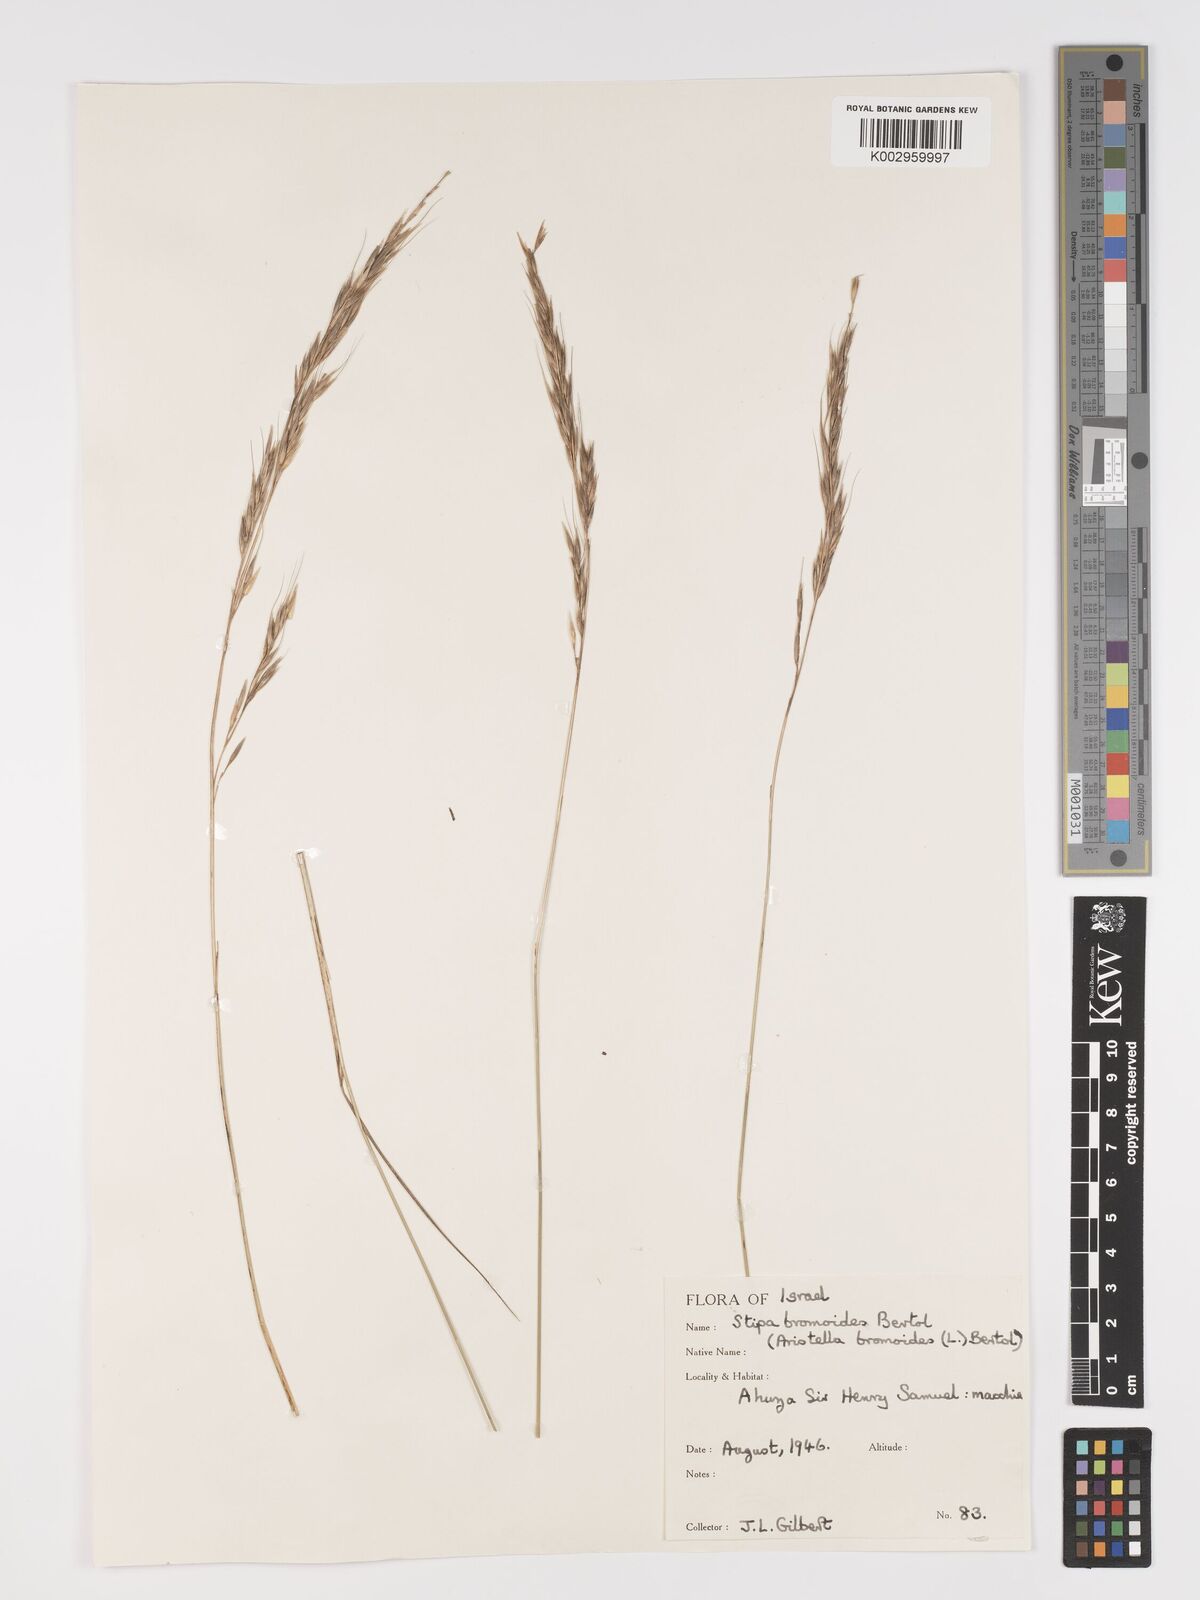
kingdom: Plantae
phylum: Tracheophyta
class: Liliopsida
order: Poales
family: Poaceae
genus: Achnatherum
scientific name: Achnatherum bromoides
